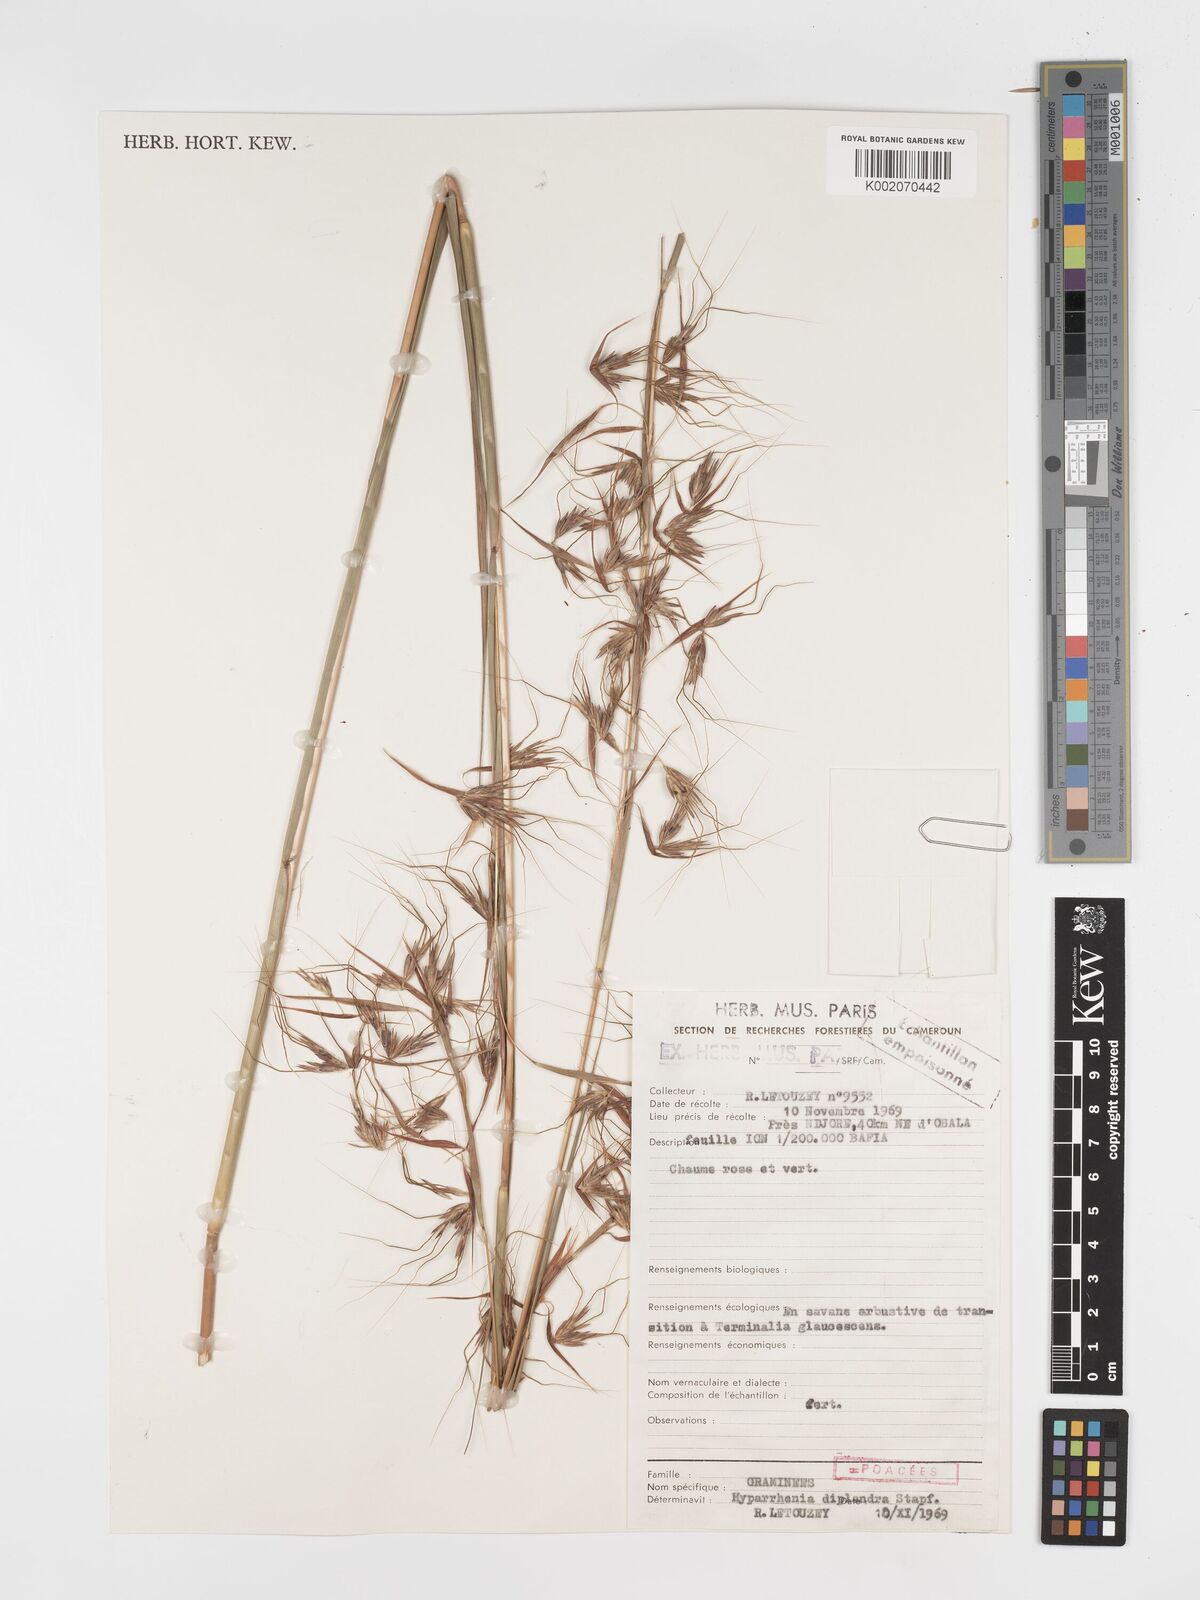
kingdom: Plantae
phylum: Tracheophyta
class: Liliopsida
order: Poales
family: Poaceae
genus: Hyparrhenia
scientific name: Hyparrhenia diplandra
